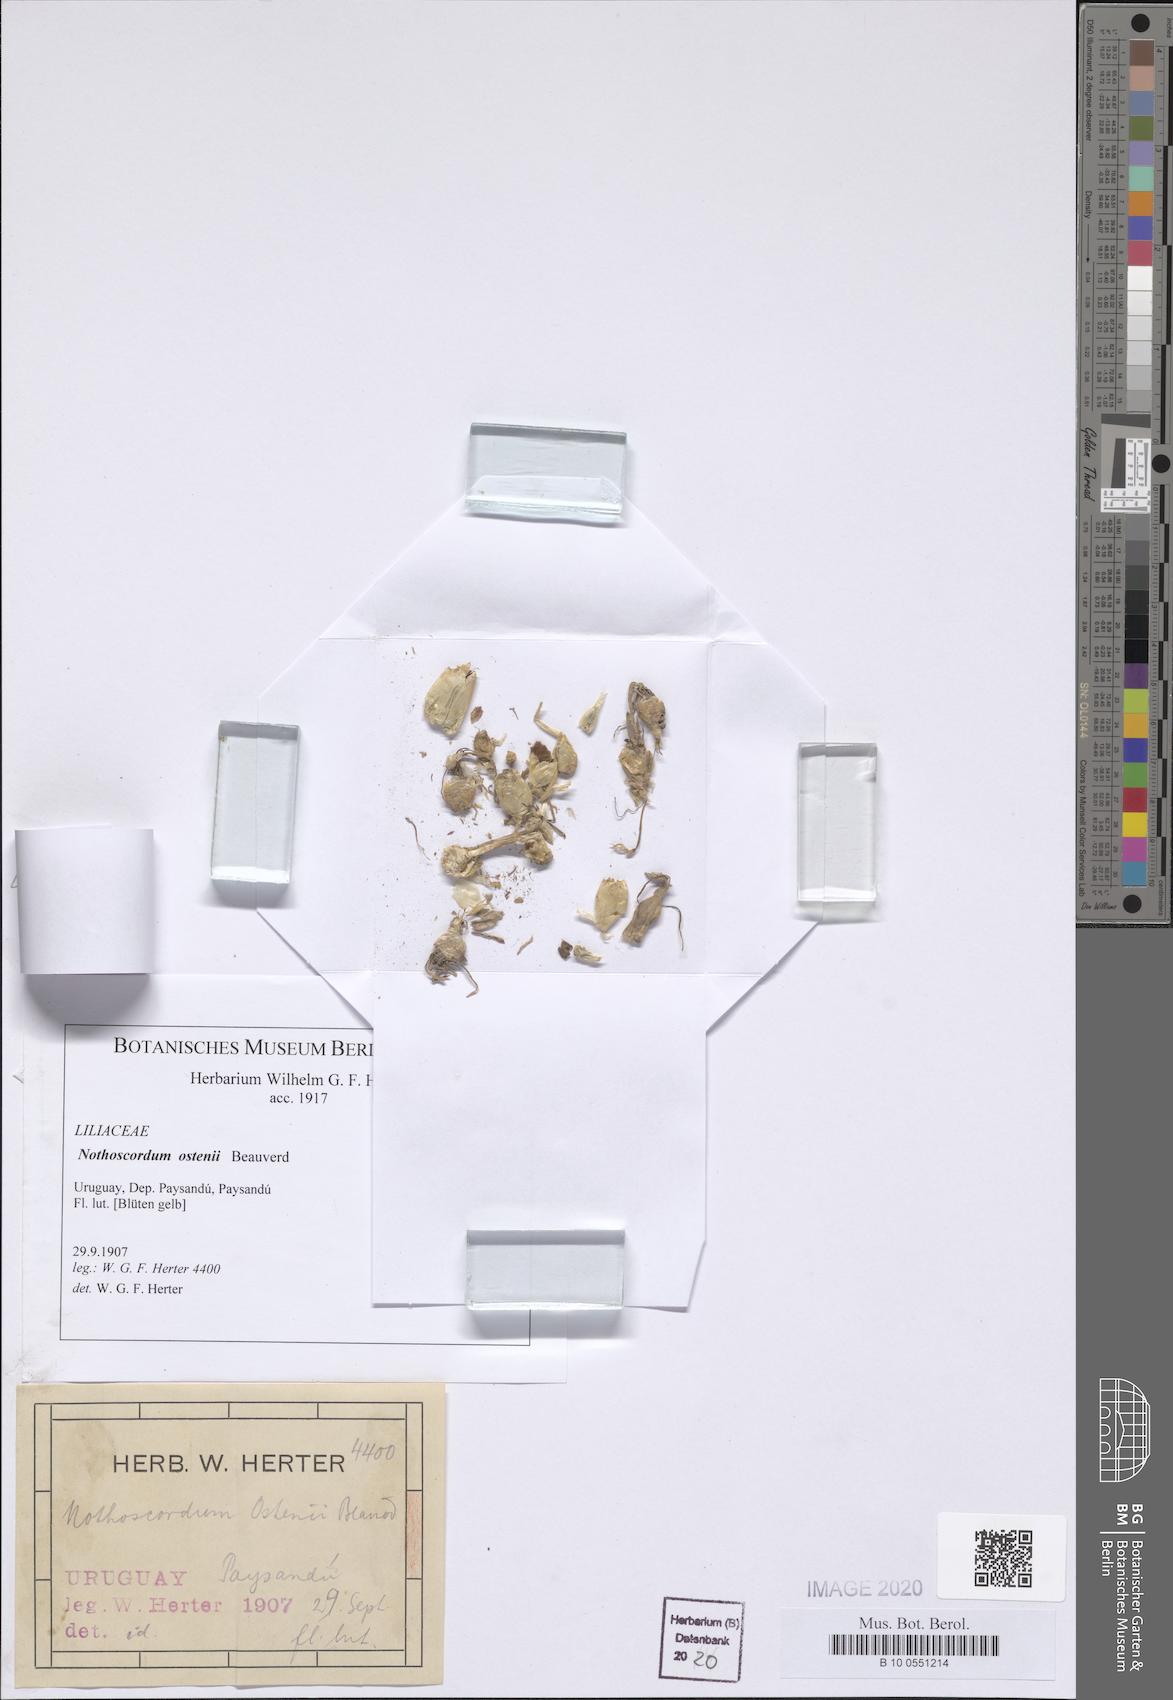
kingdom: Plantae
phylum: Tracheophyta
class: Liliopsida
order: Asparagales
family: Amaryllidaceae
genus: Nothoscordum
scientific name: Nothoscordum montevidense
